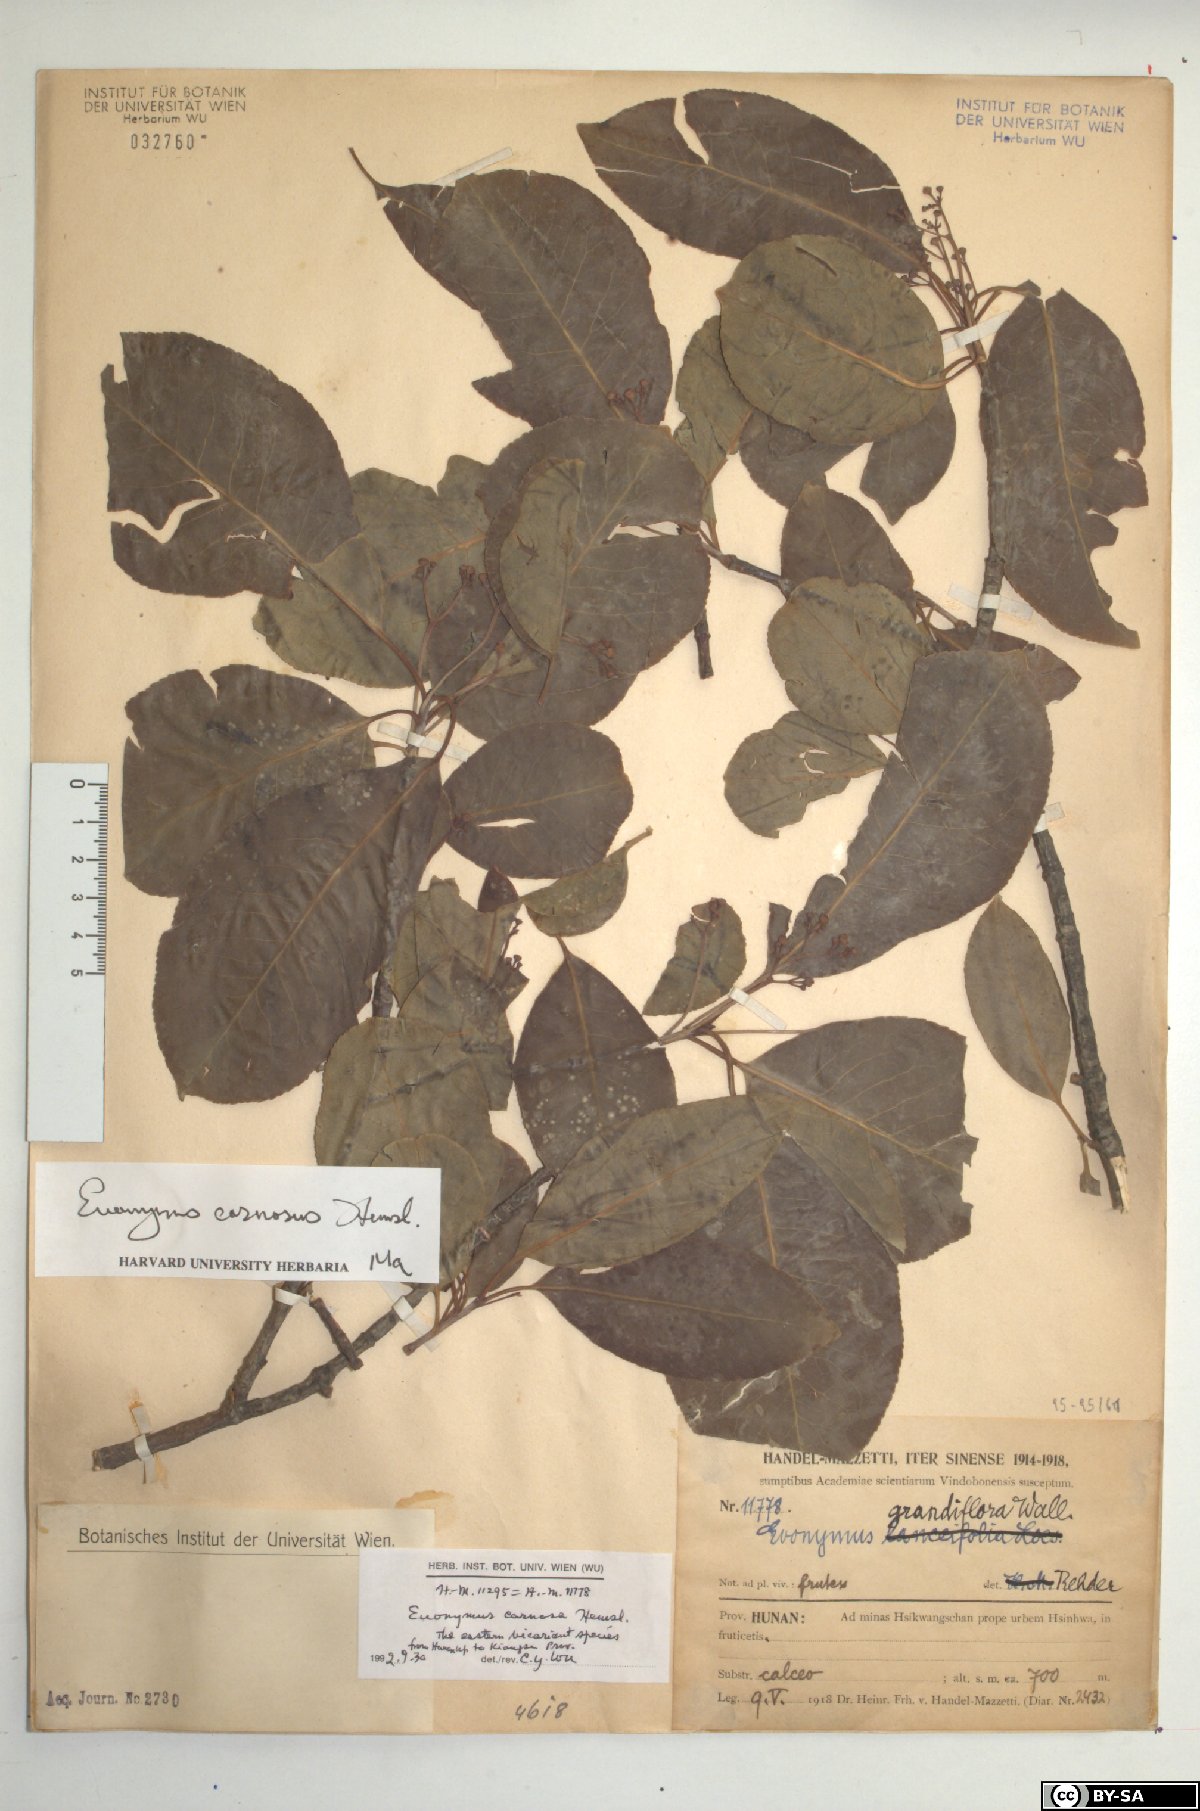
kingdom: Plantae
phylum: Tracheophyta
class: Magnoliopsida
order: Celastrales
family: Celastraceae
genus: Euonymus
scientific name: Euonymus carnosus
